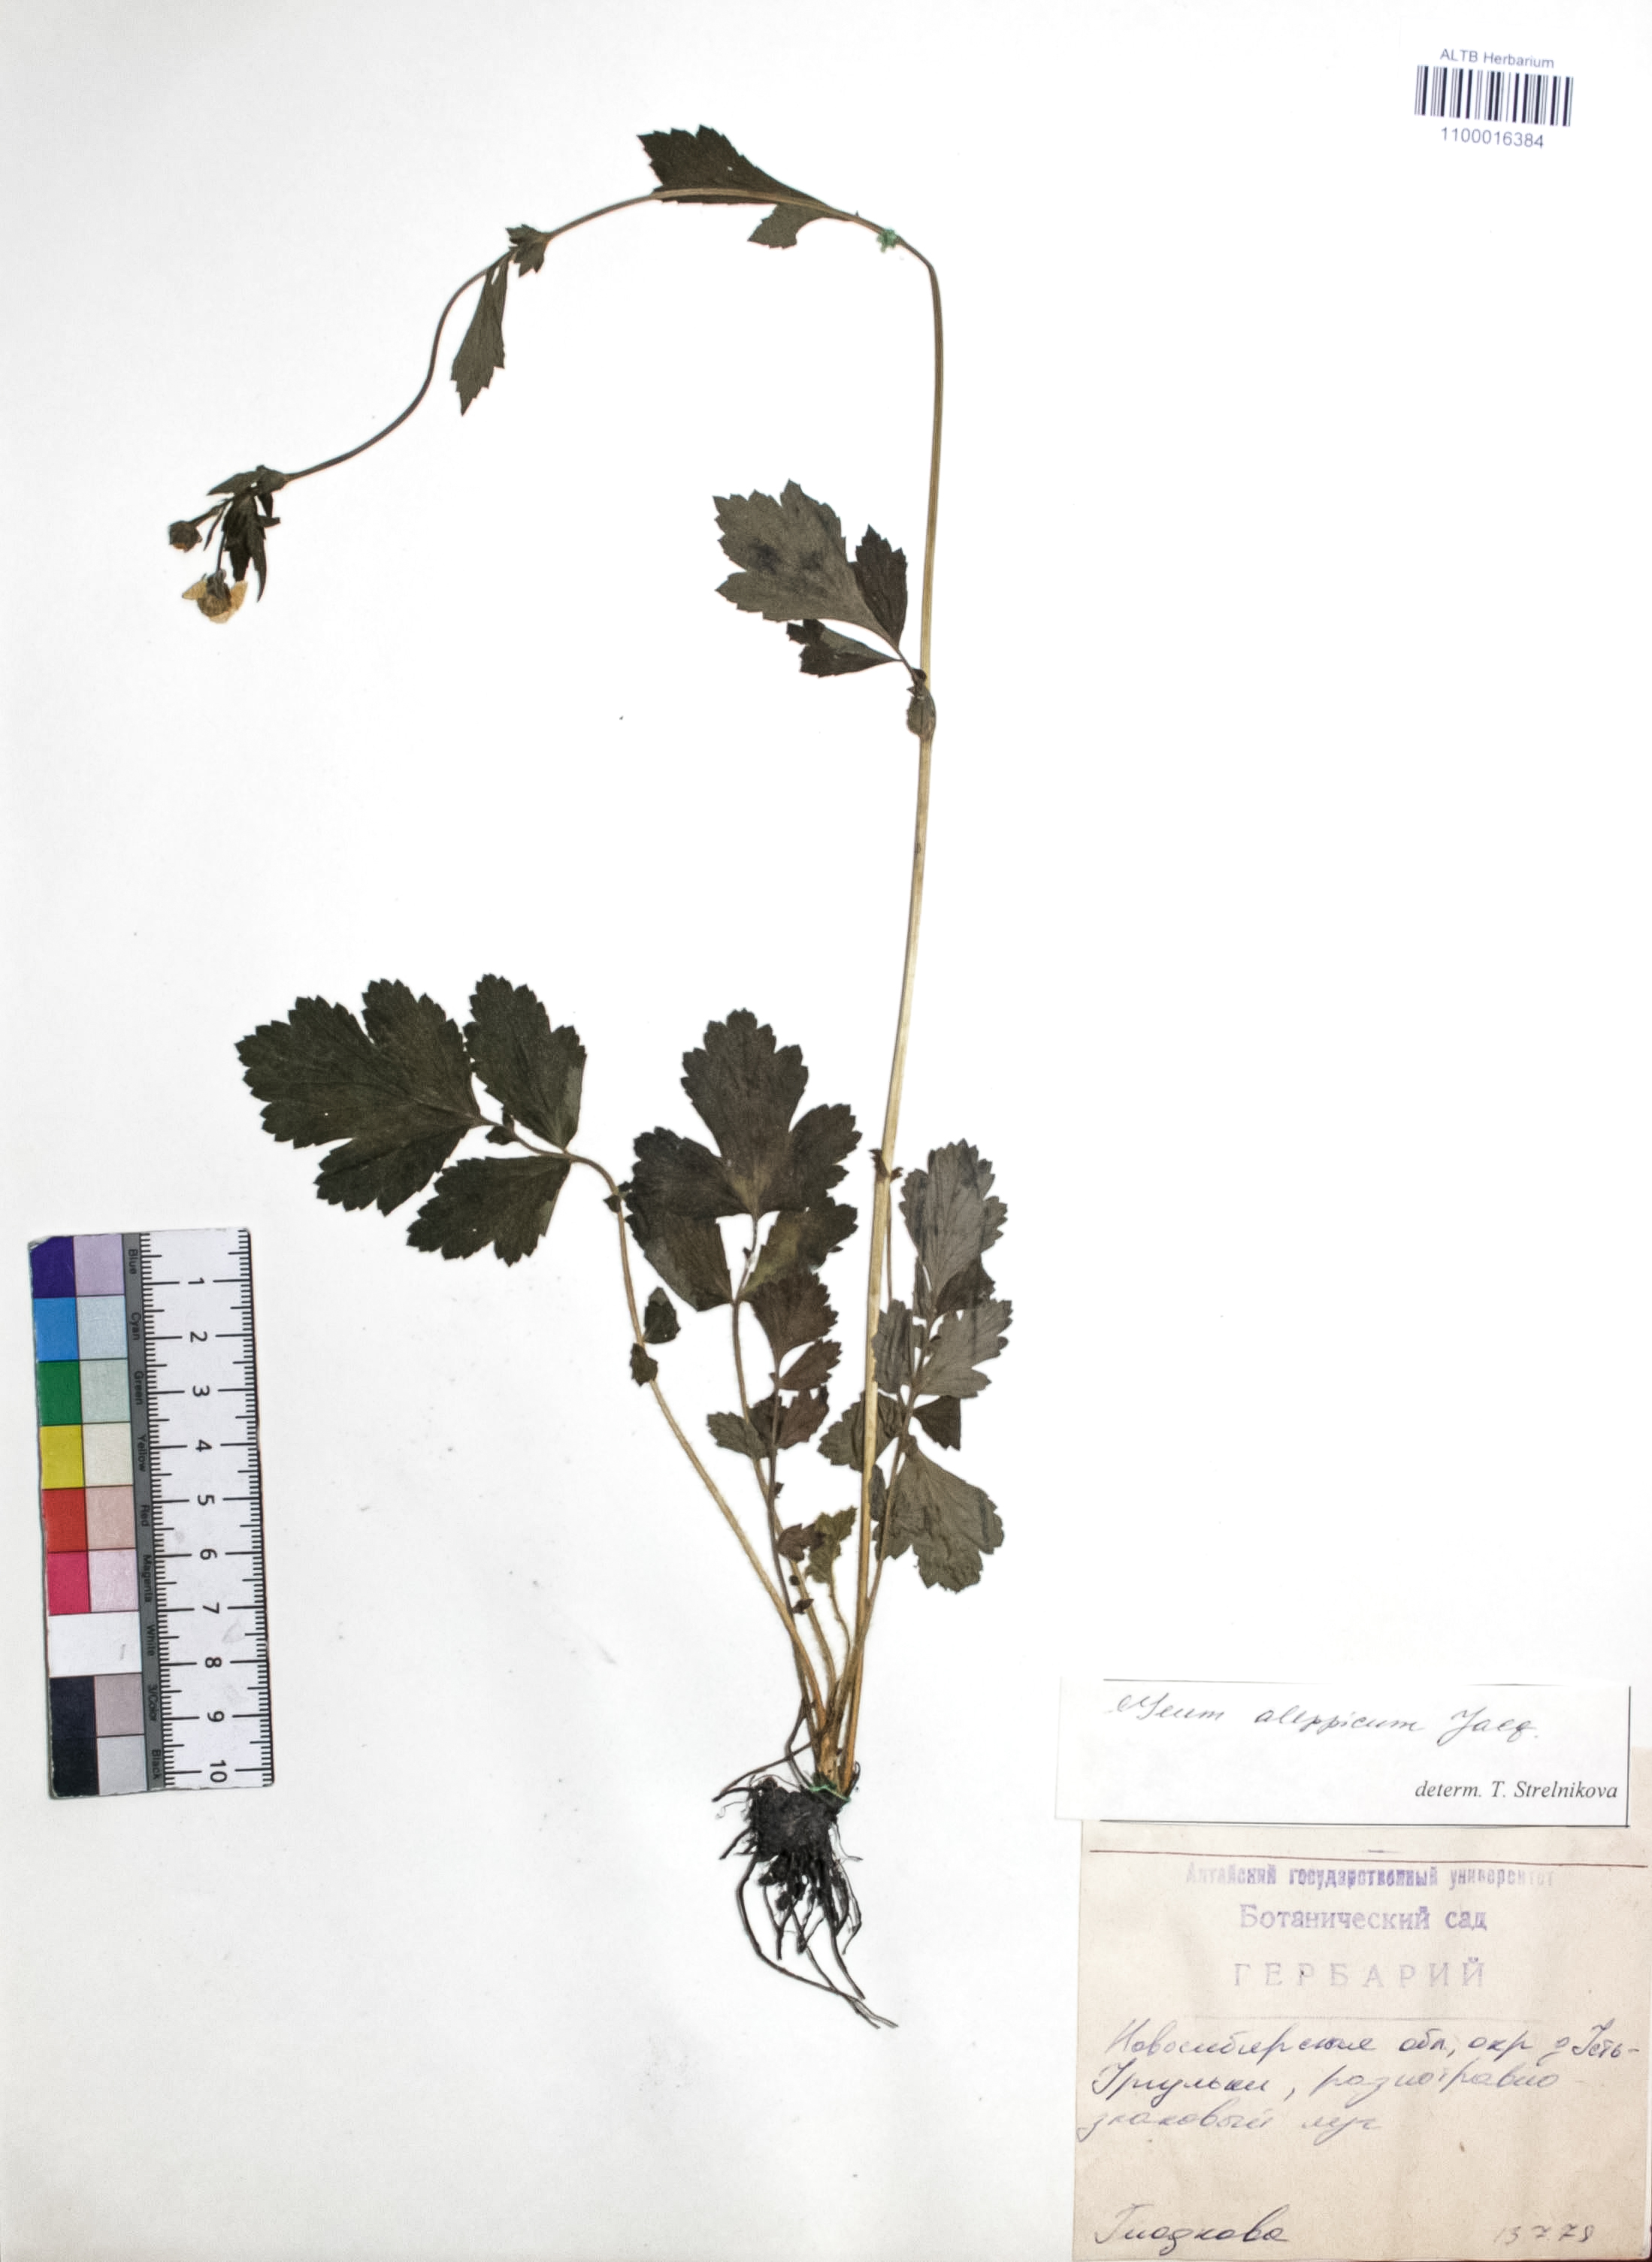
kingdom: Plantae
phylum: Tracheophyta
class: Magnoliopsida
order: Rosales
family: Rosaceae
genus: Geum
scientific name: Geum aleppicum
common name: Yellow avens
